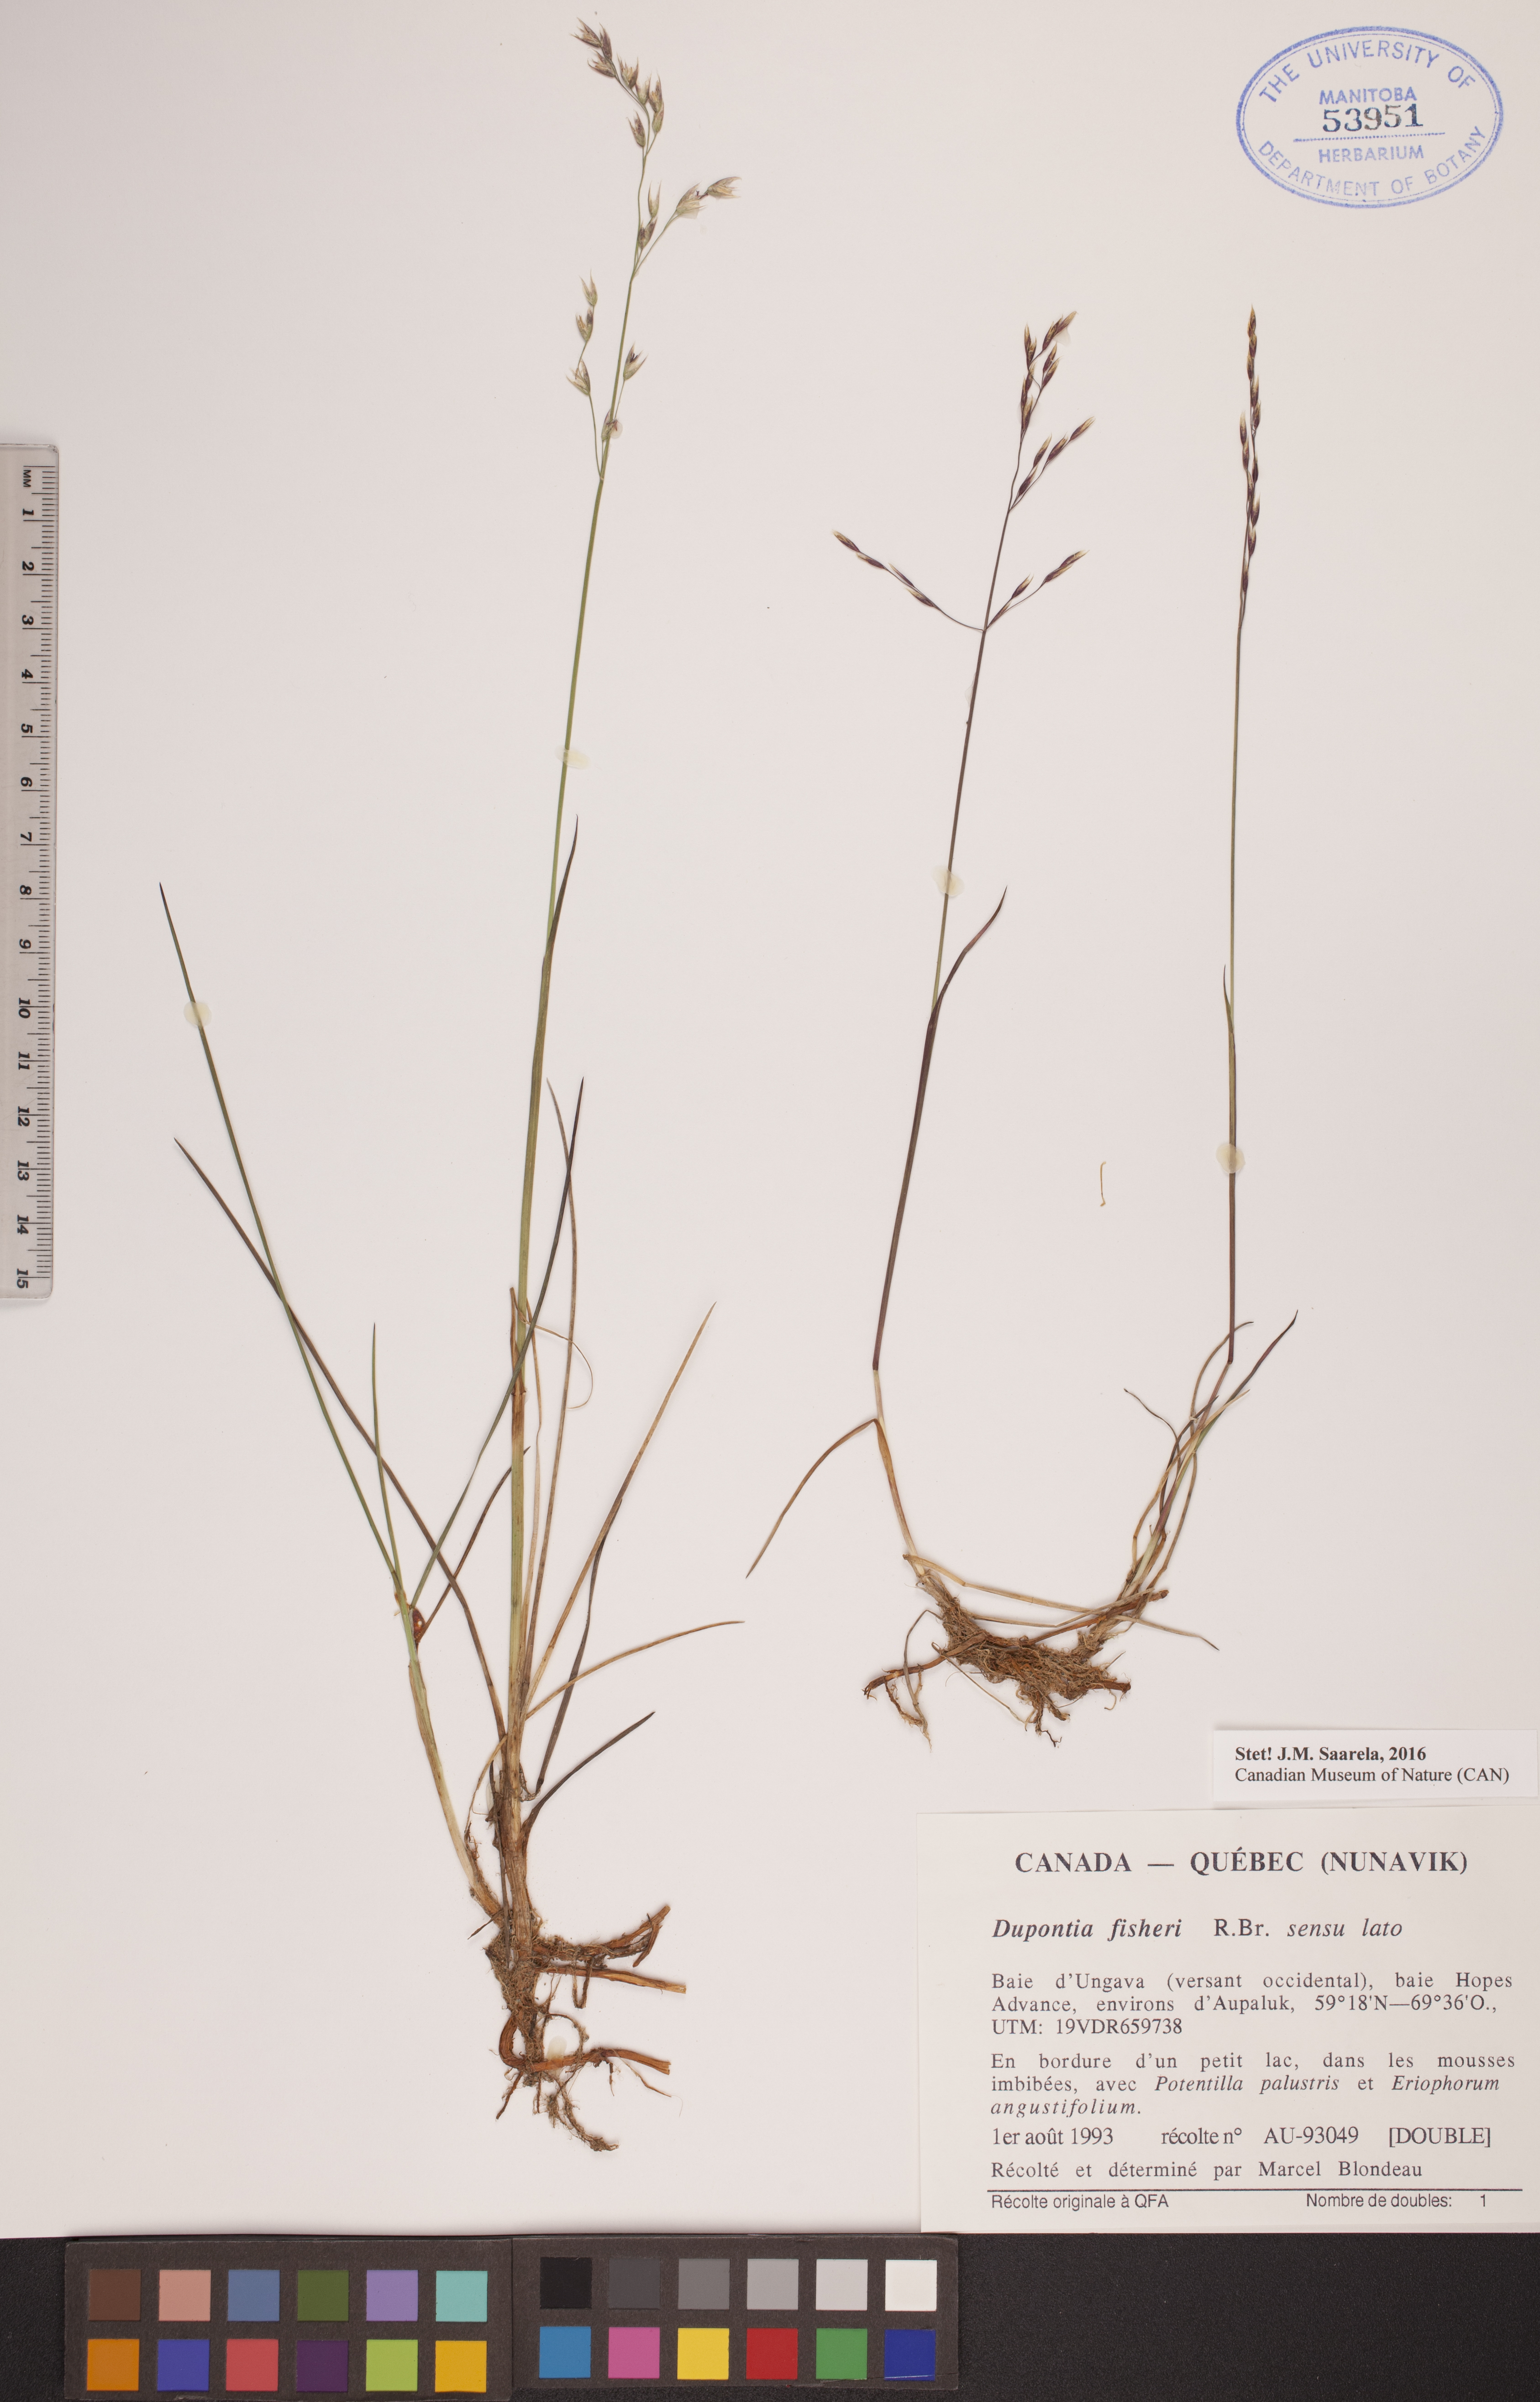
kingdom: Plantae
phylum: Tracheophyta
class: Liliopsida
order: Poales
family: Poaceae
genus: Dupontia
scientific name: Dupontia fisheri
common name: Tundra grass
